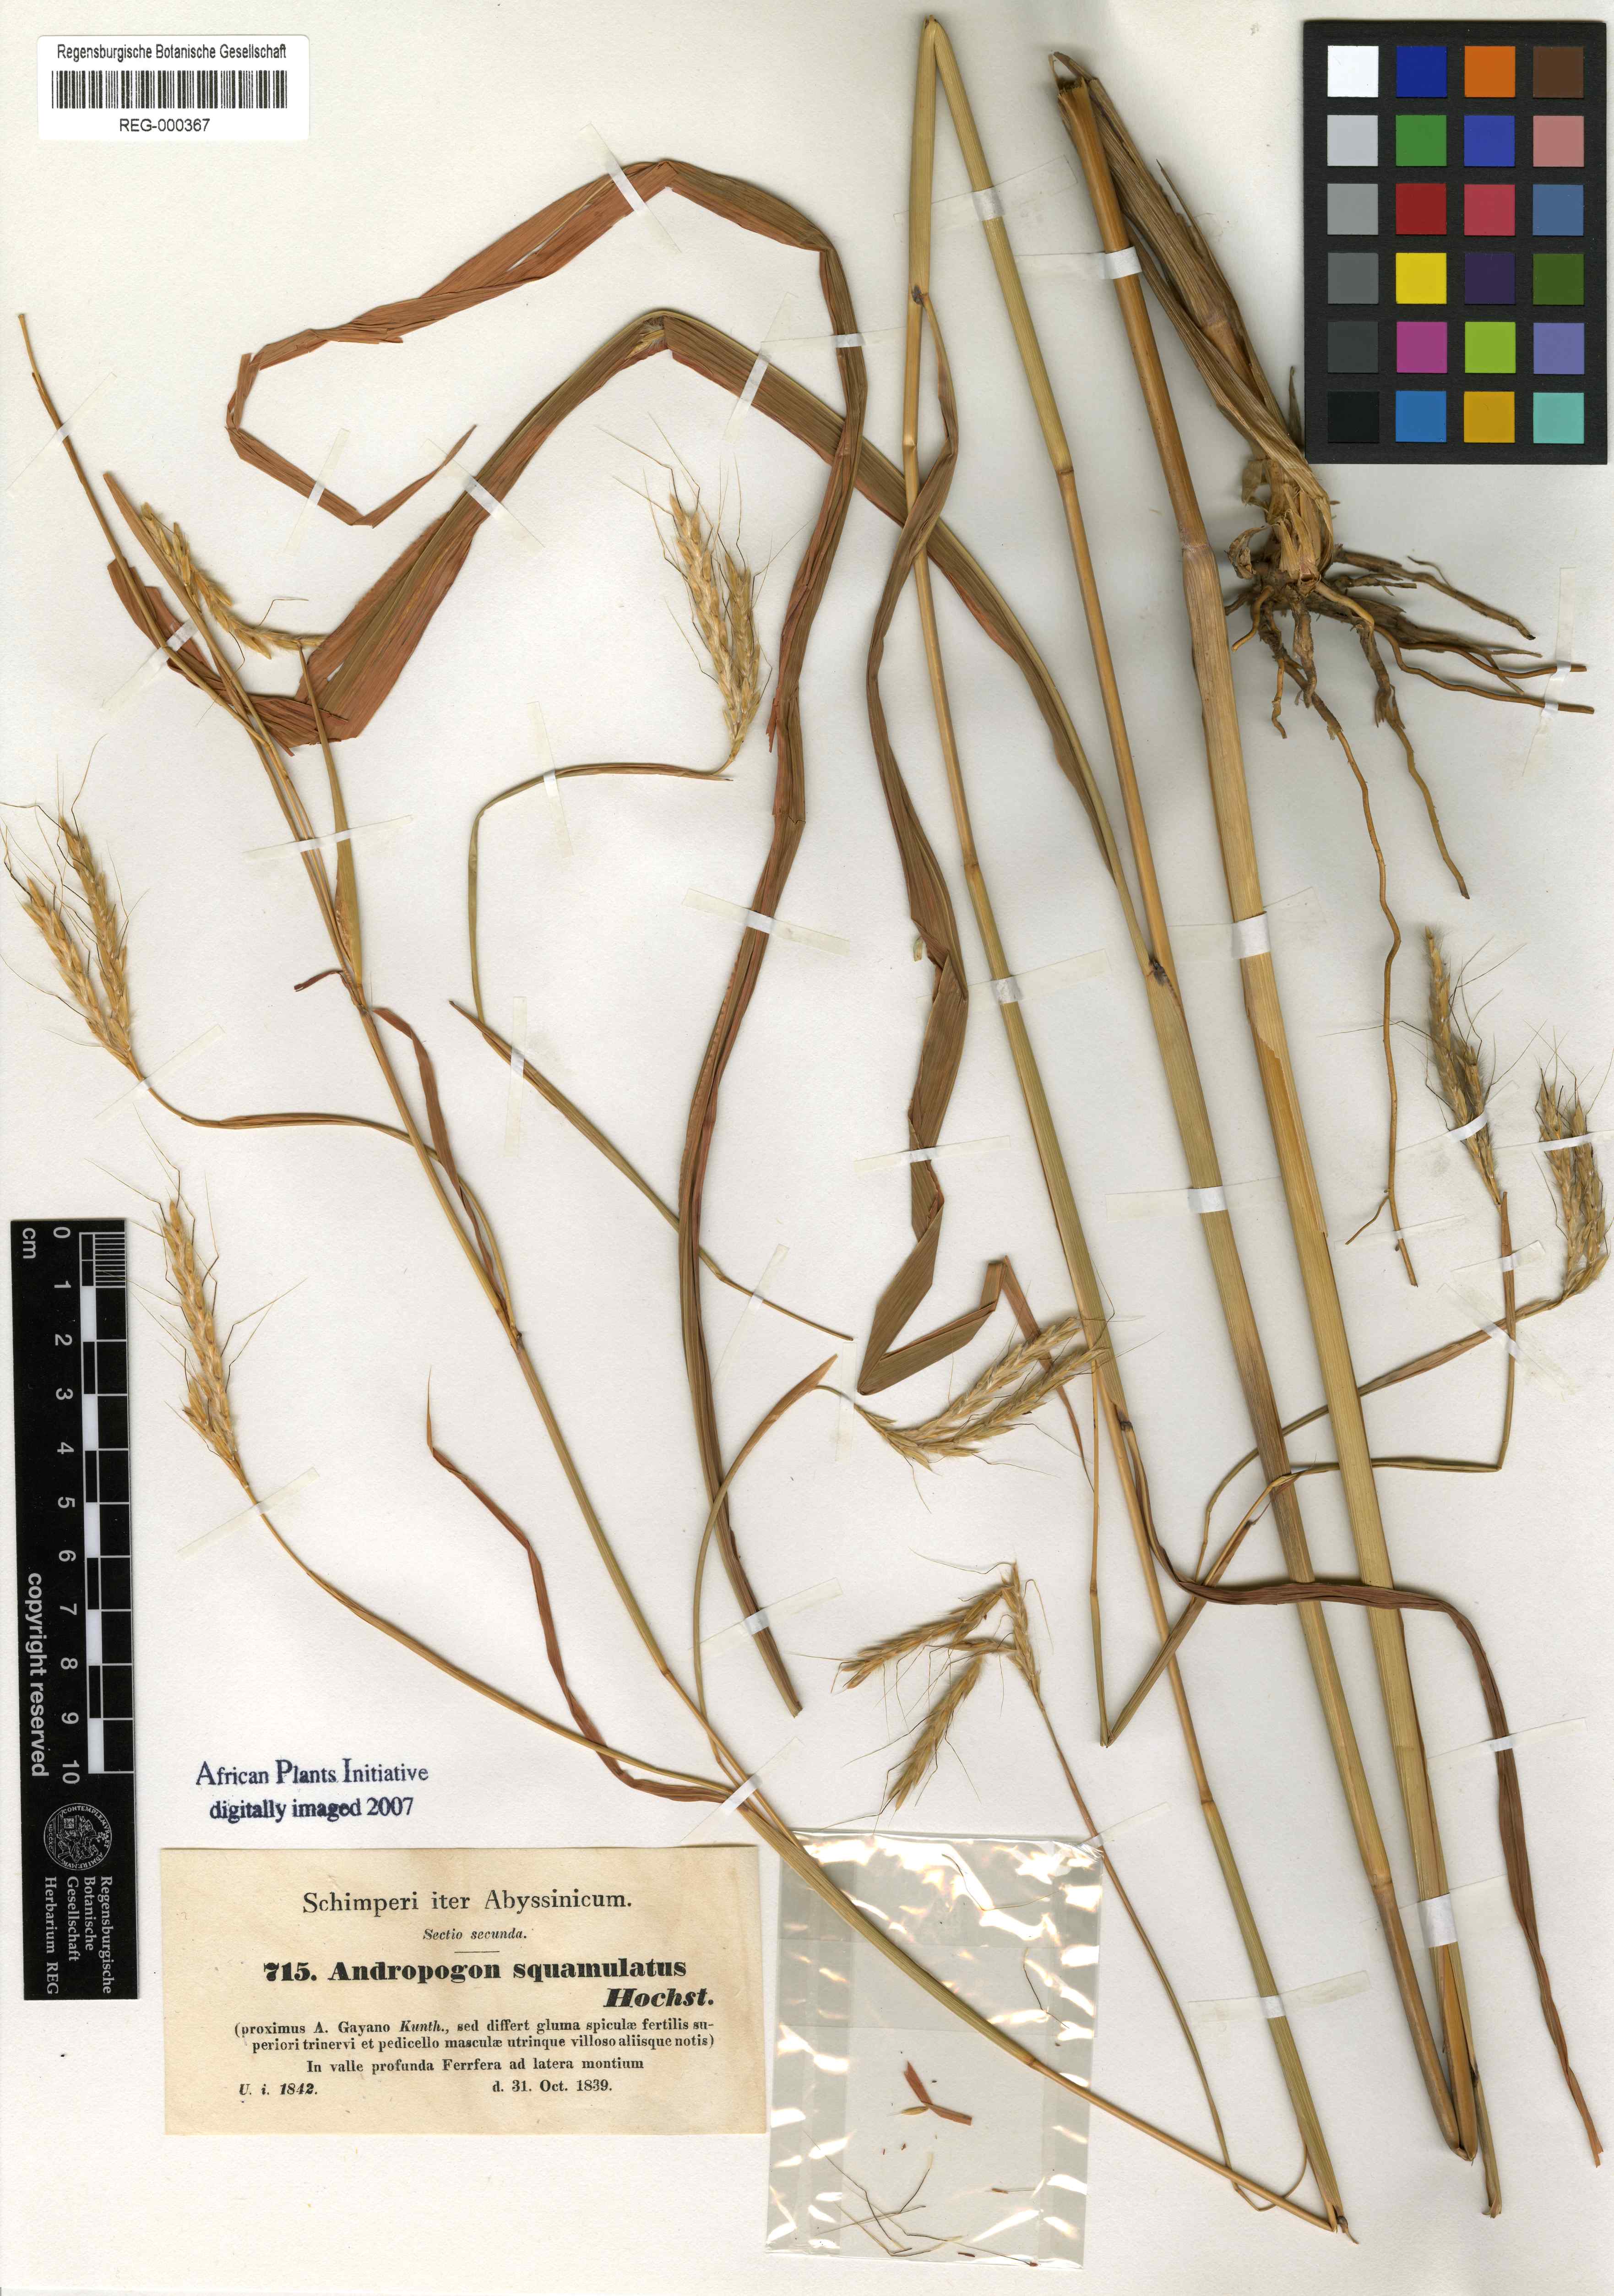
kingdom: Plantae
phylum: Tracheophyta
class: Liliopsida
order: Poales
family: Poaceae
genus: Andropogon
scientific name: Andropogon gayanus
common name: Tambuki grass
